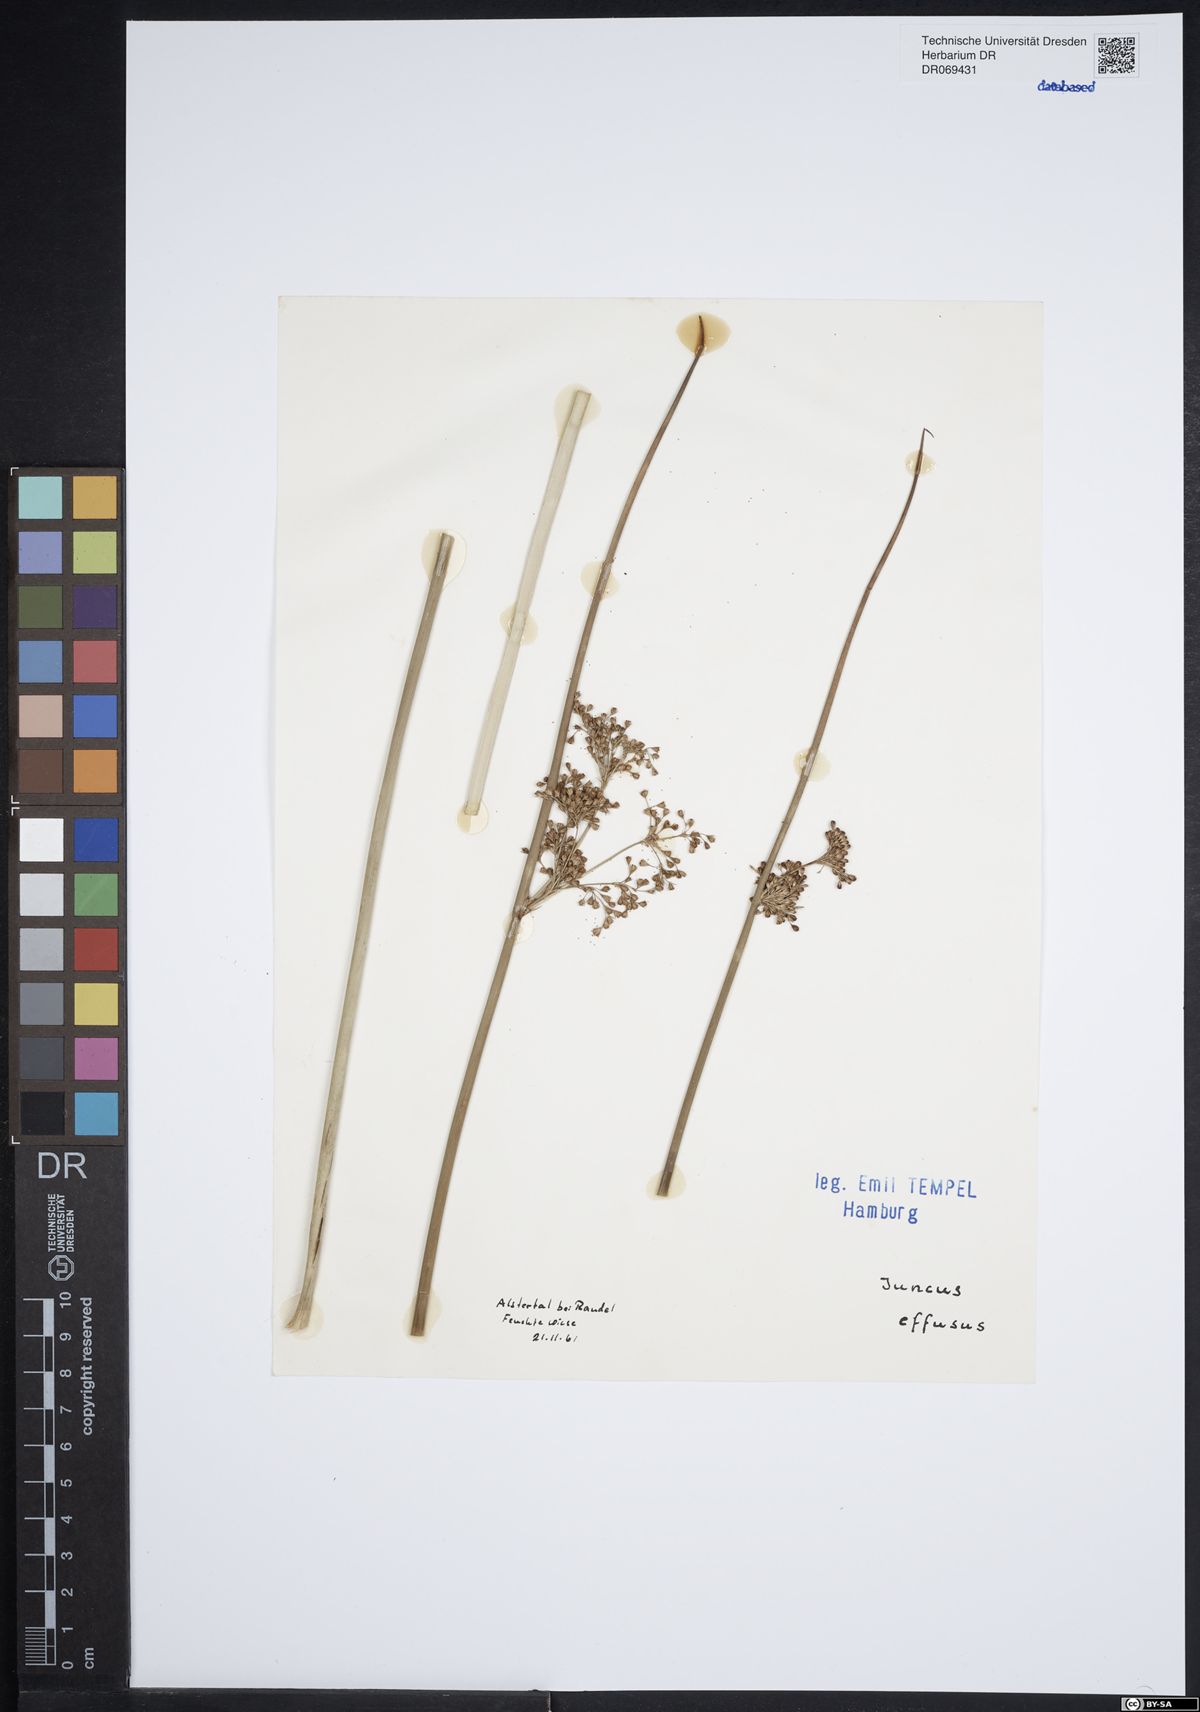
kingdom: Plantae
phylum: Tracheophyta
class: Liliopsida
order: Poales
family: Juncaceae
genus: Juncus
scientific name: Juncus effusus
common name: Soft rush
